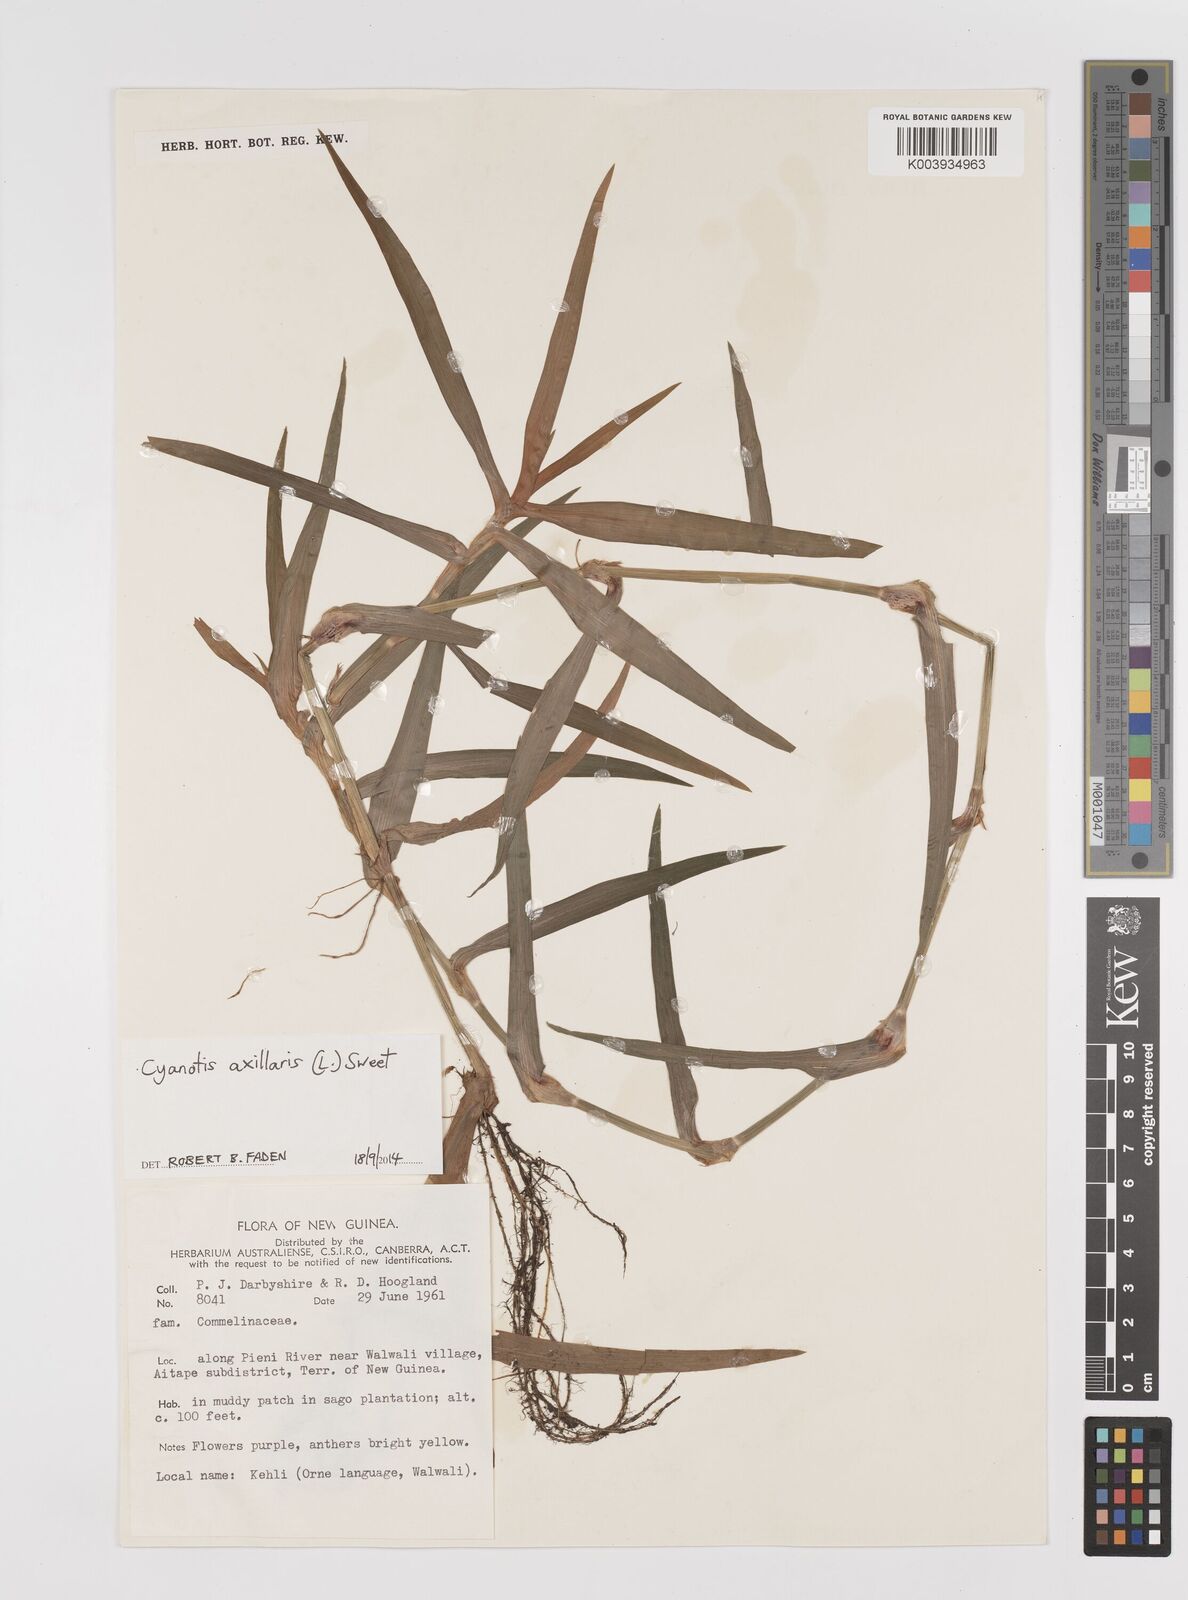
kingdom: Plantae
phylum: Tracheophyta
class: Liliopsida
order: Commelinales
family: Commelinaceae
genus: Cyanotis
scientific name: Cyanotis axillaris
